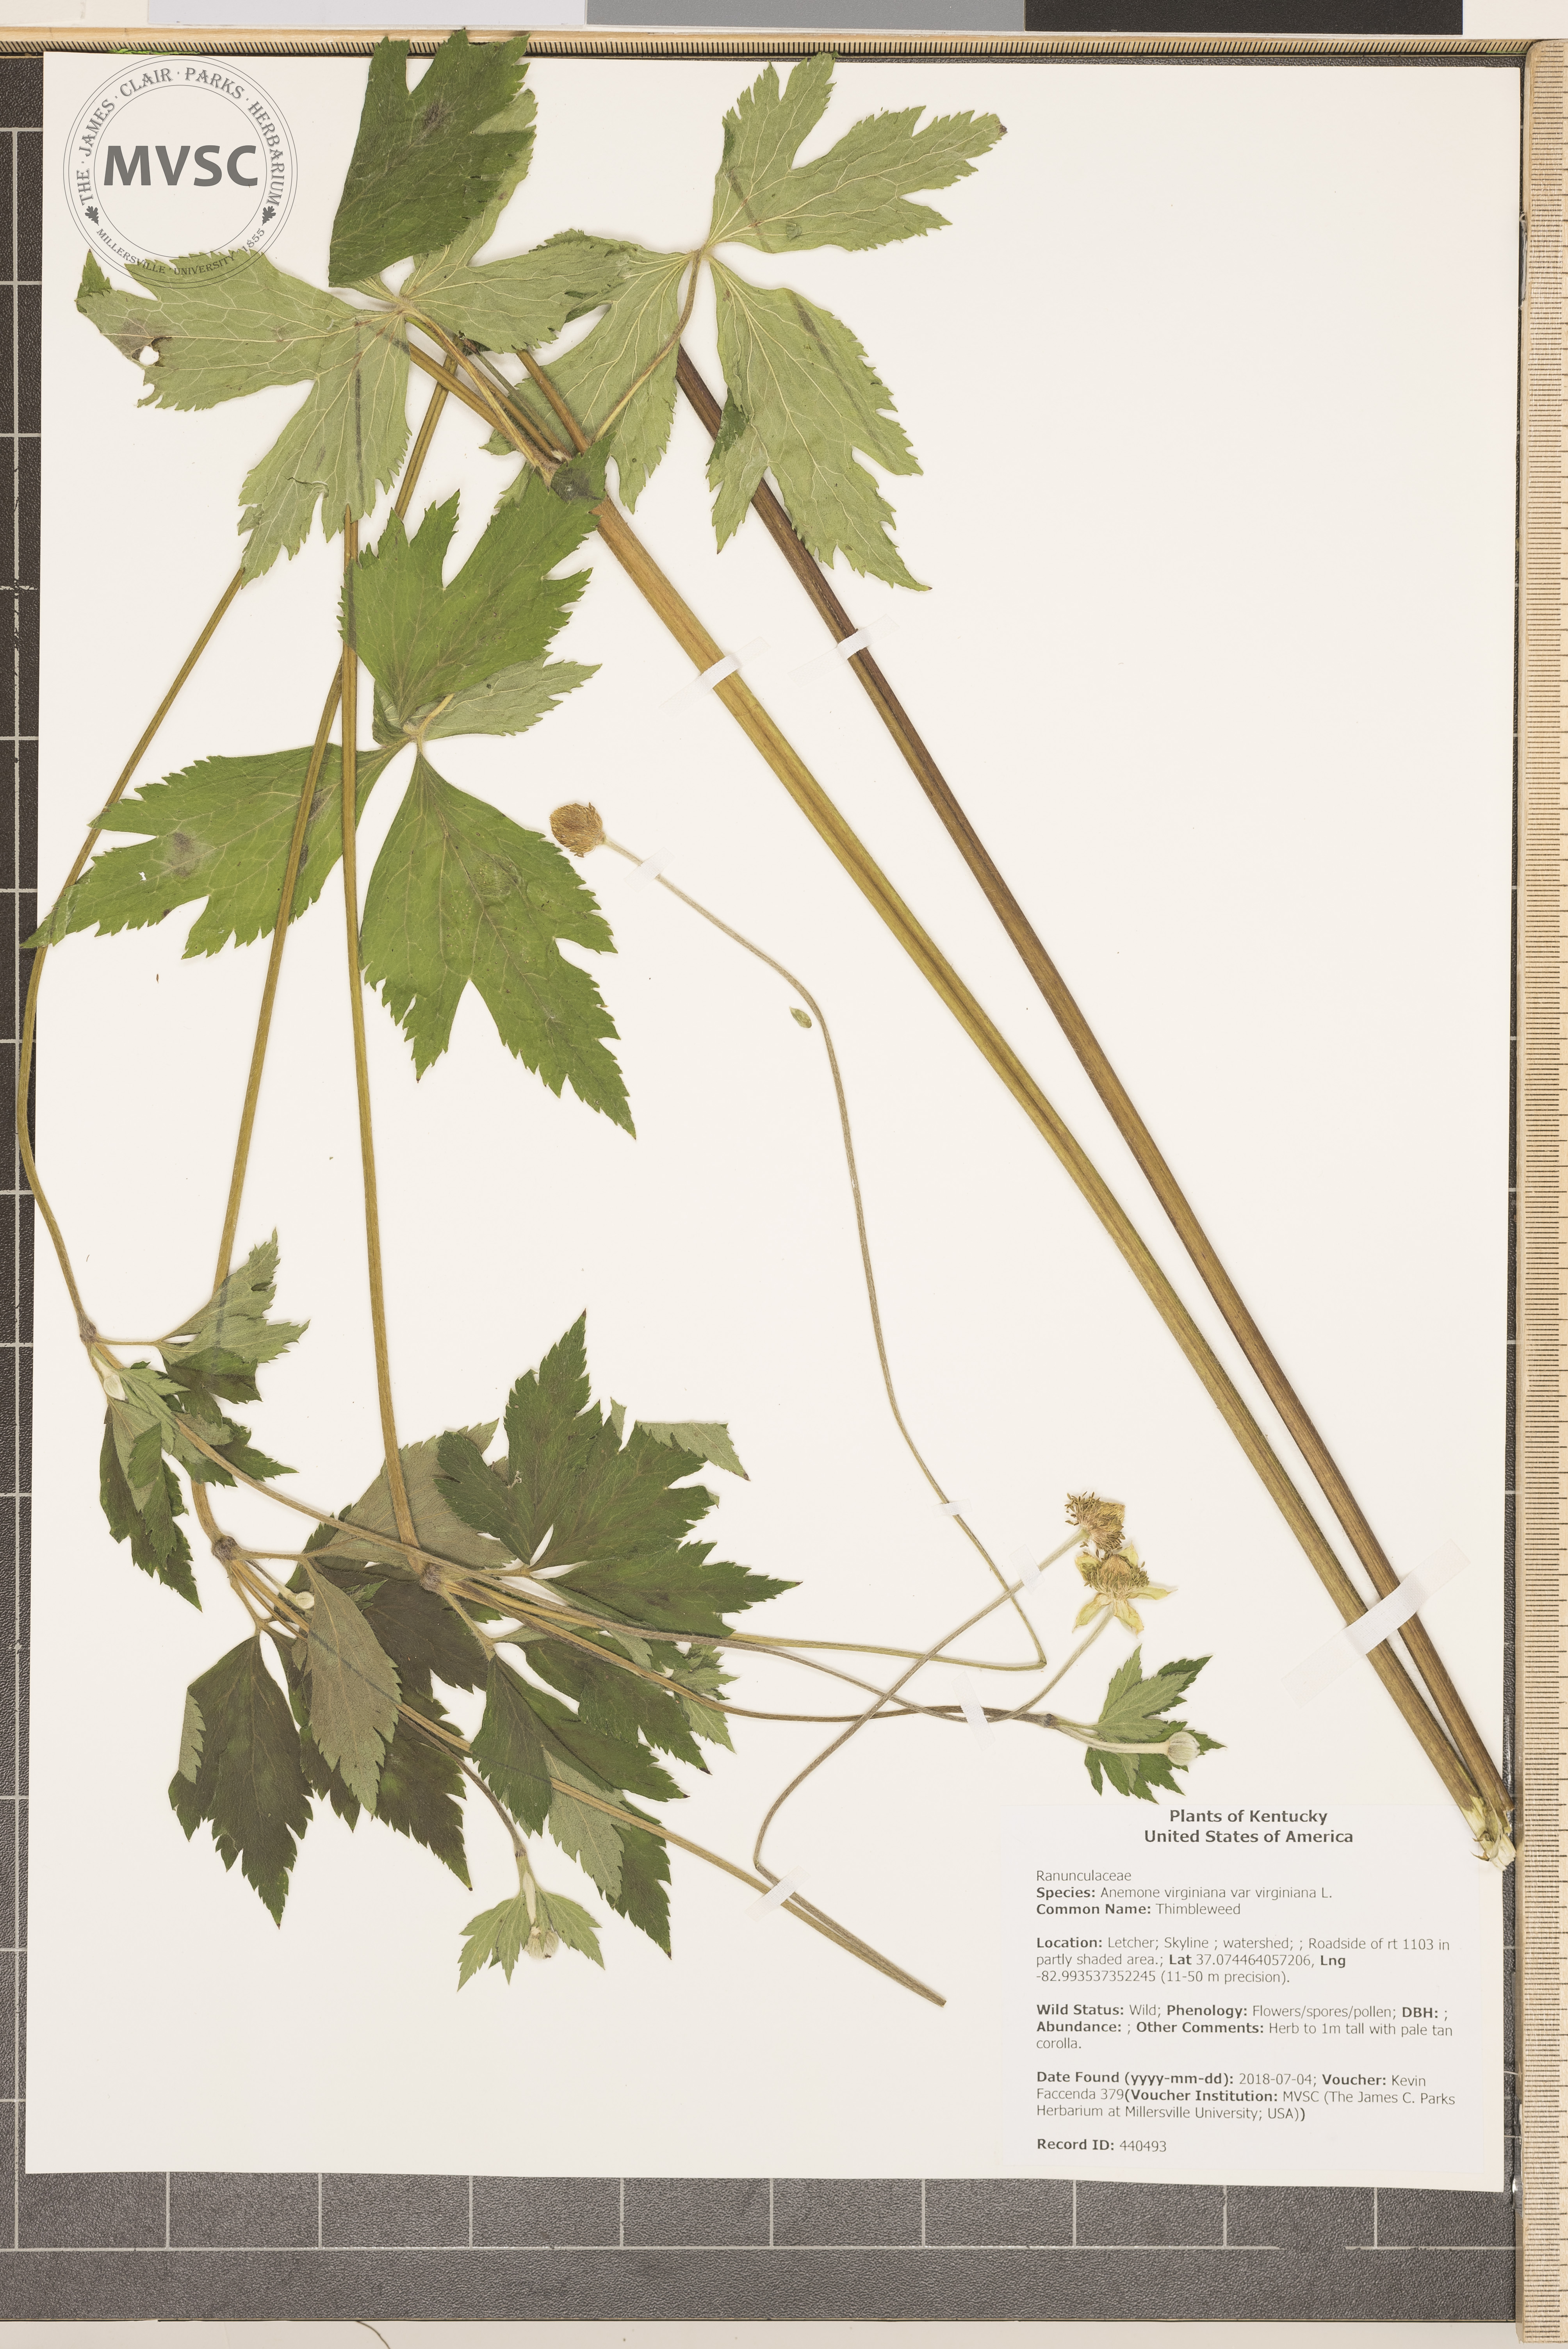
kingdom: Plantae
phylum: Tracheophyta
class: Magnoliopsida
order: Ranunculales
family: Ranunculaceae
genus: Anemone
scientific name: Anemone virginiana
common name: Thimbleweed
